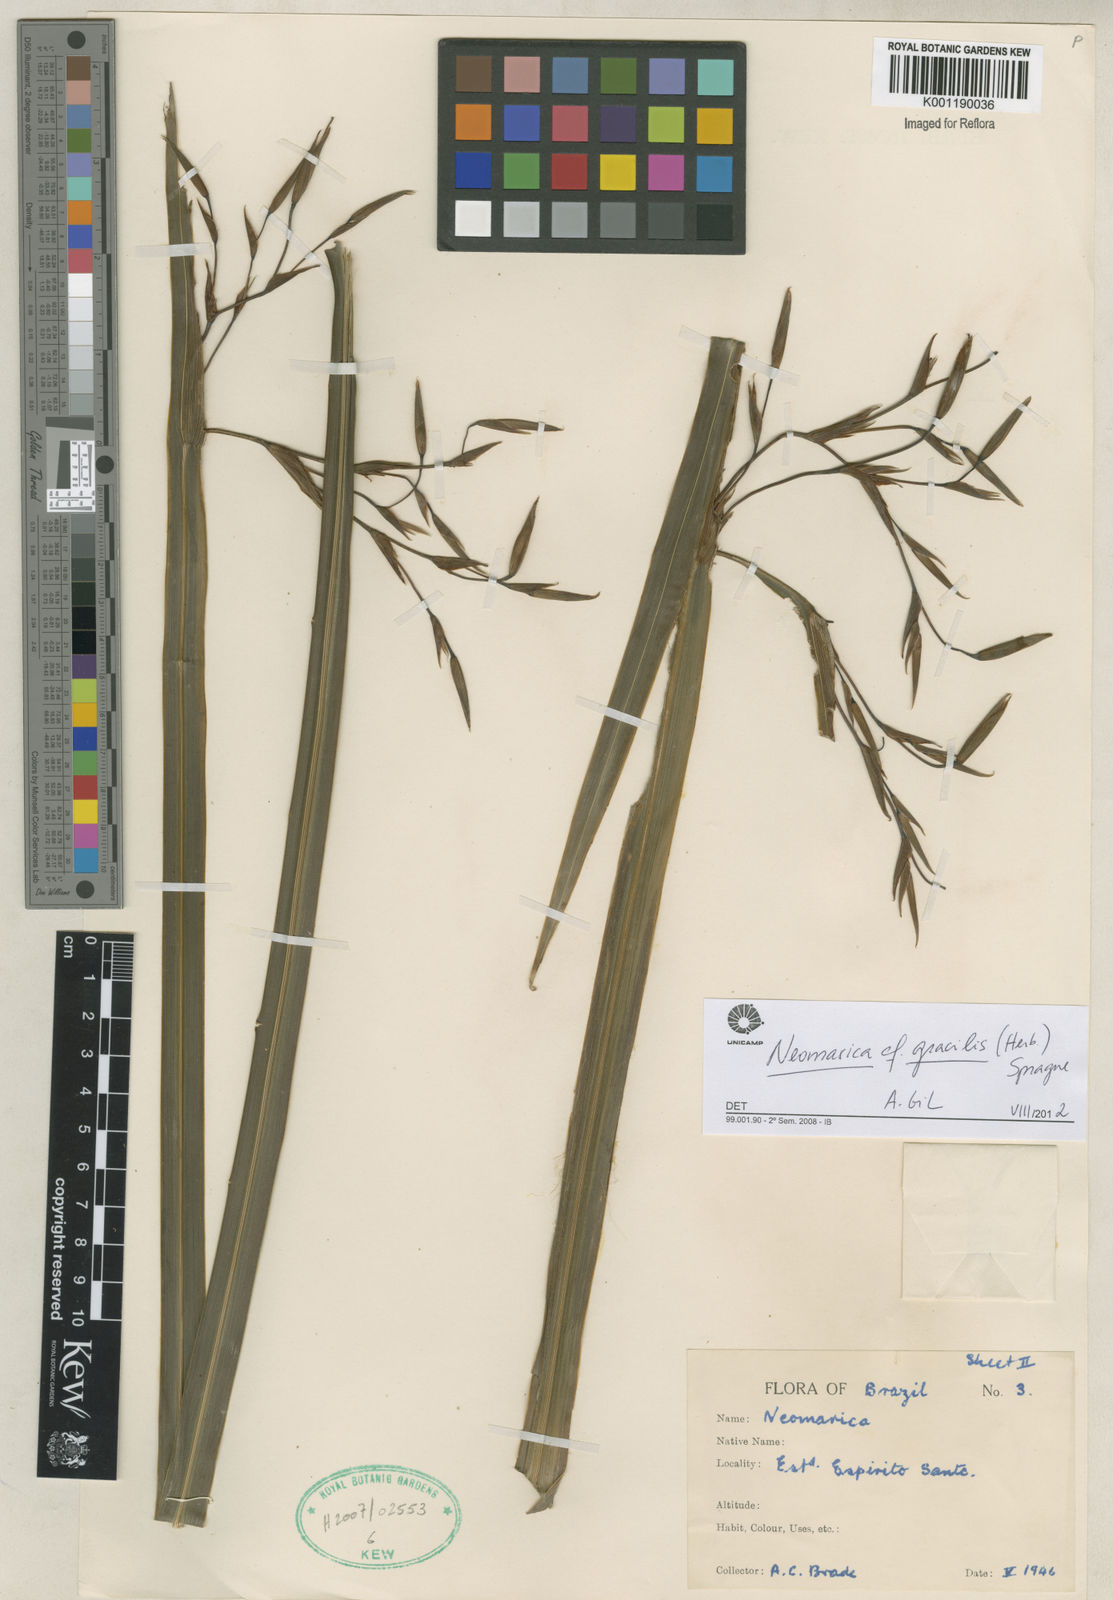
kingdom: Plantae
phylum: Tracheophyta
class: Liliopsida
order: Asparagales
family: Iridaceae
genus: Trimezia
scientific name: Trimezia gracilis
